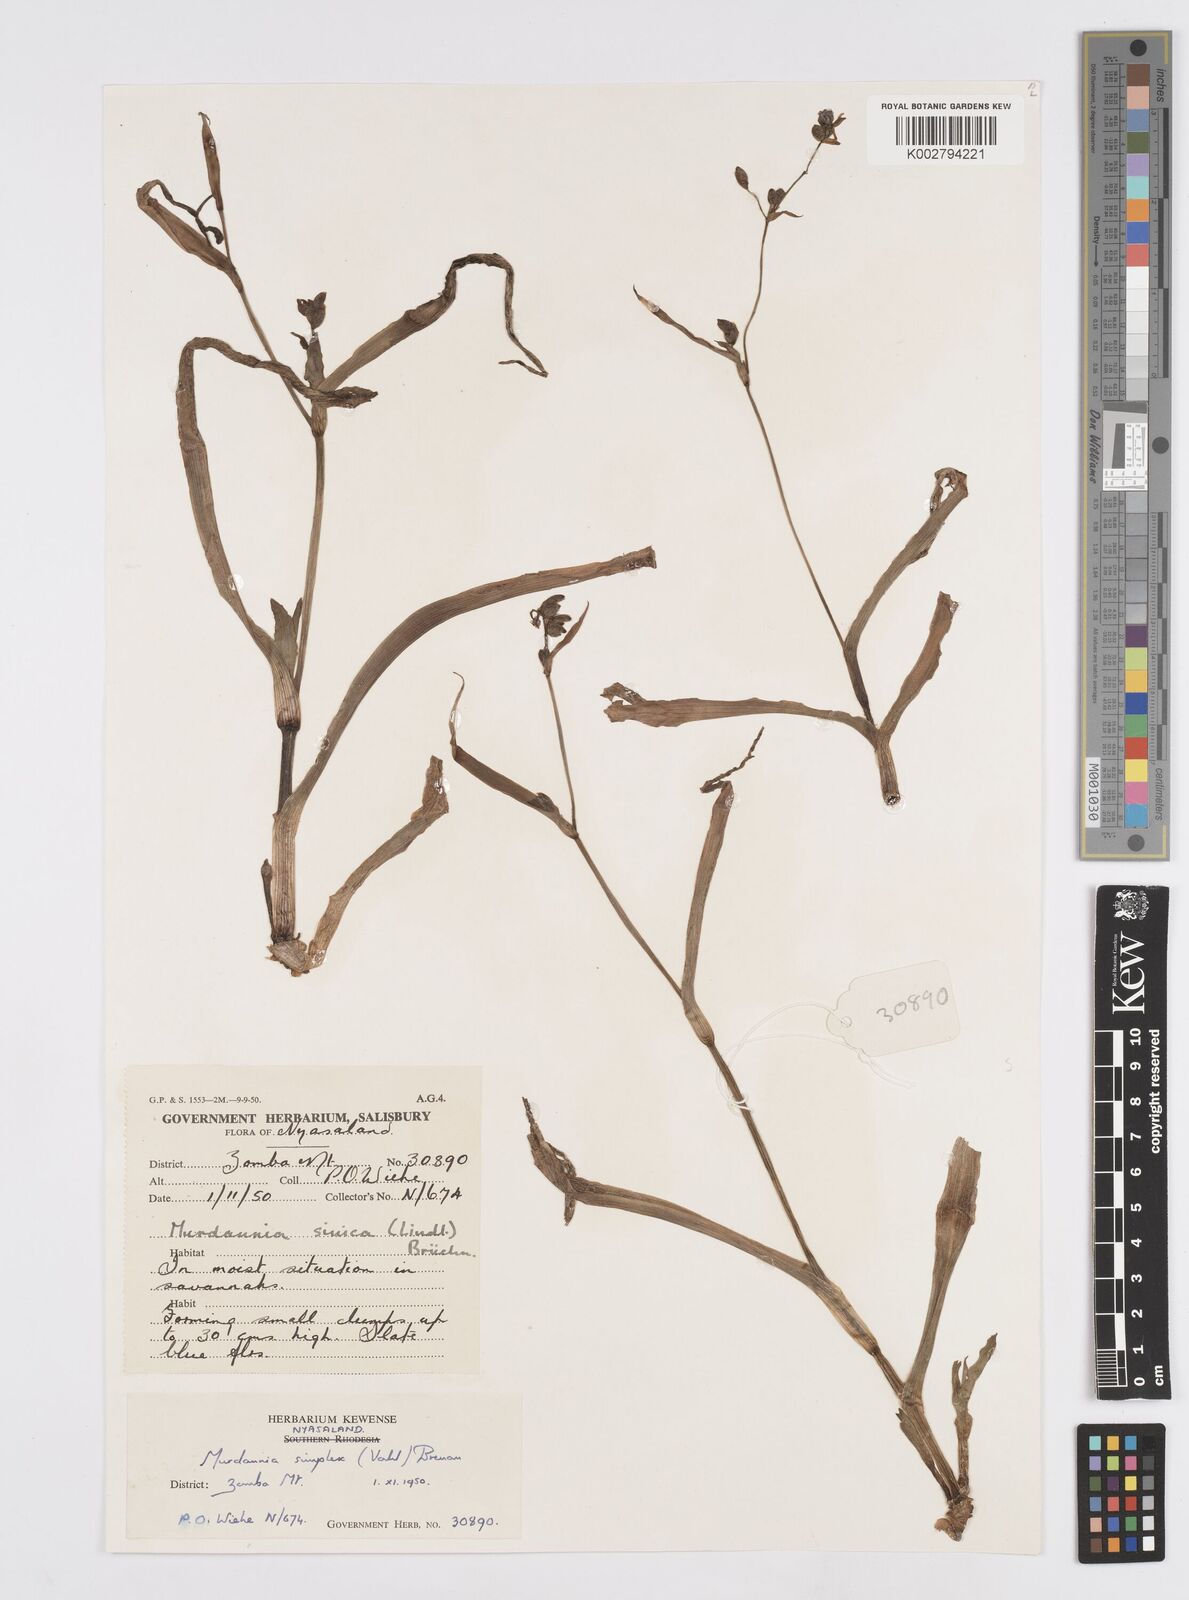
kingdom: Plantae
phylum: Tracheophyta
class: Liliopsida
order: Commelinales
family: Commelinaceae
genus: Murdannia
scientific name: Murdannia simplex
